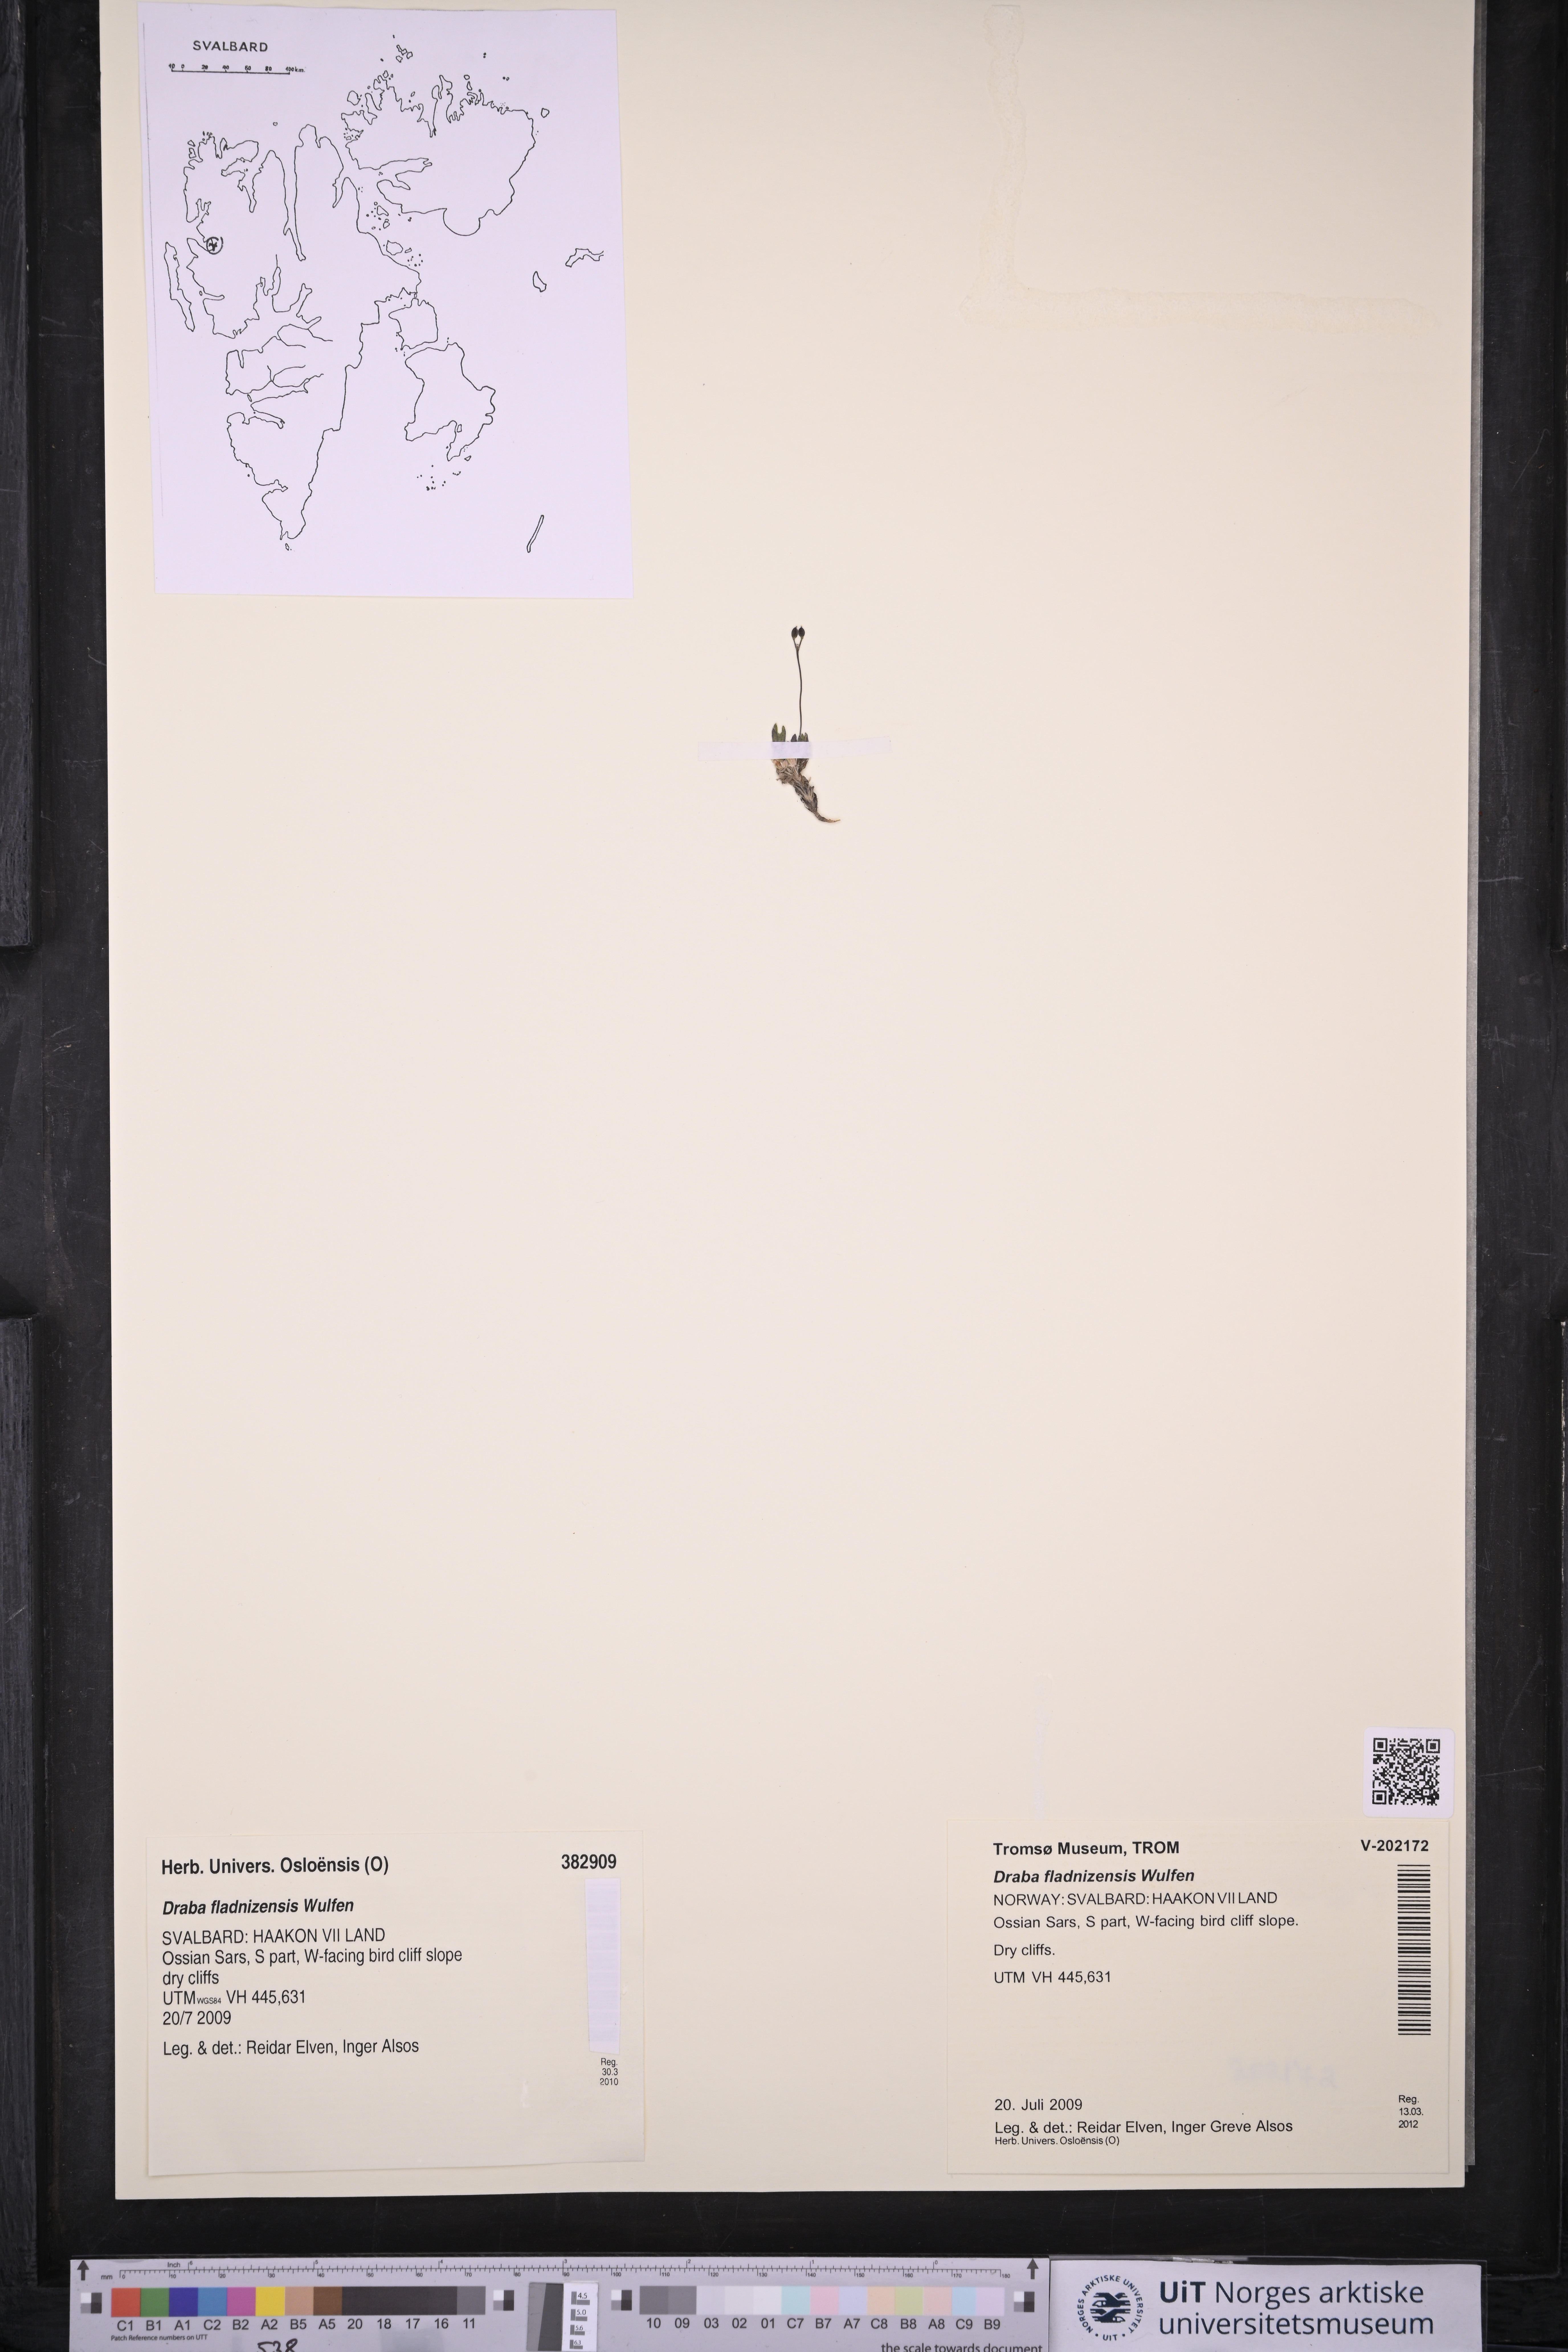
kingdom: Plantae
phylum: Tracheophyta
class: Magnoliopsida
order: Brassicales
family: Brassicaceae
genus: Draba
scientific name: Draba fladnizensis
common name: Austrian draba
